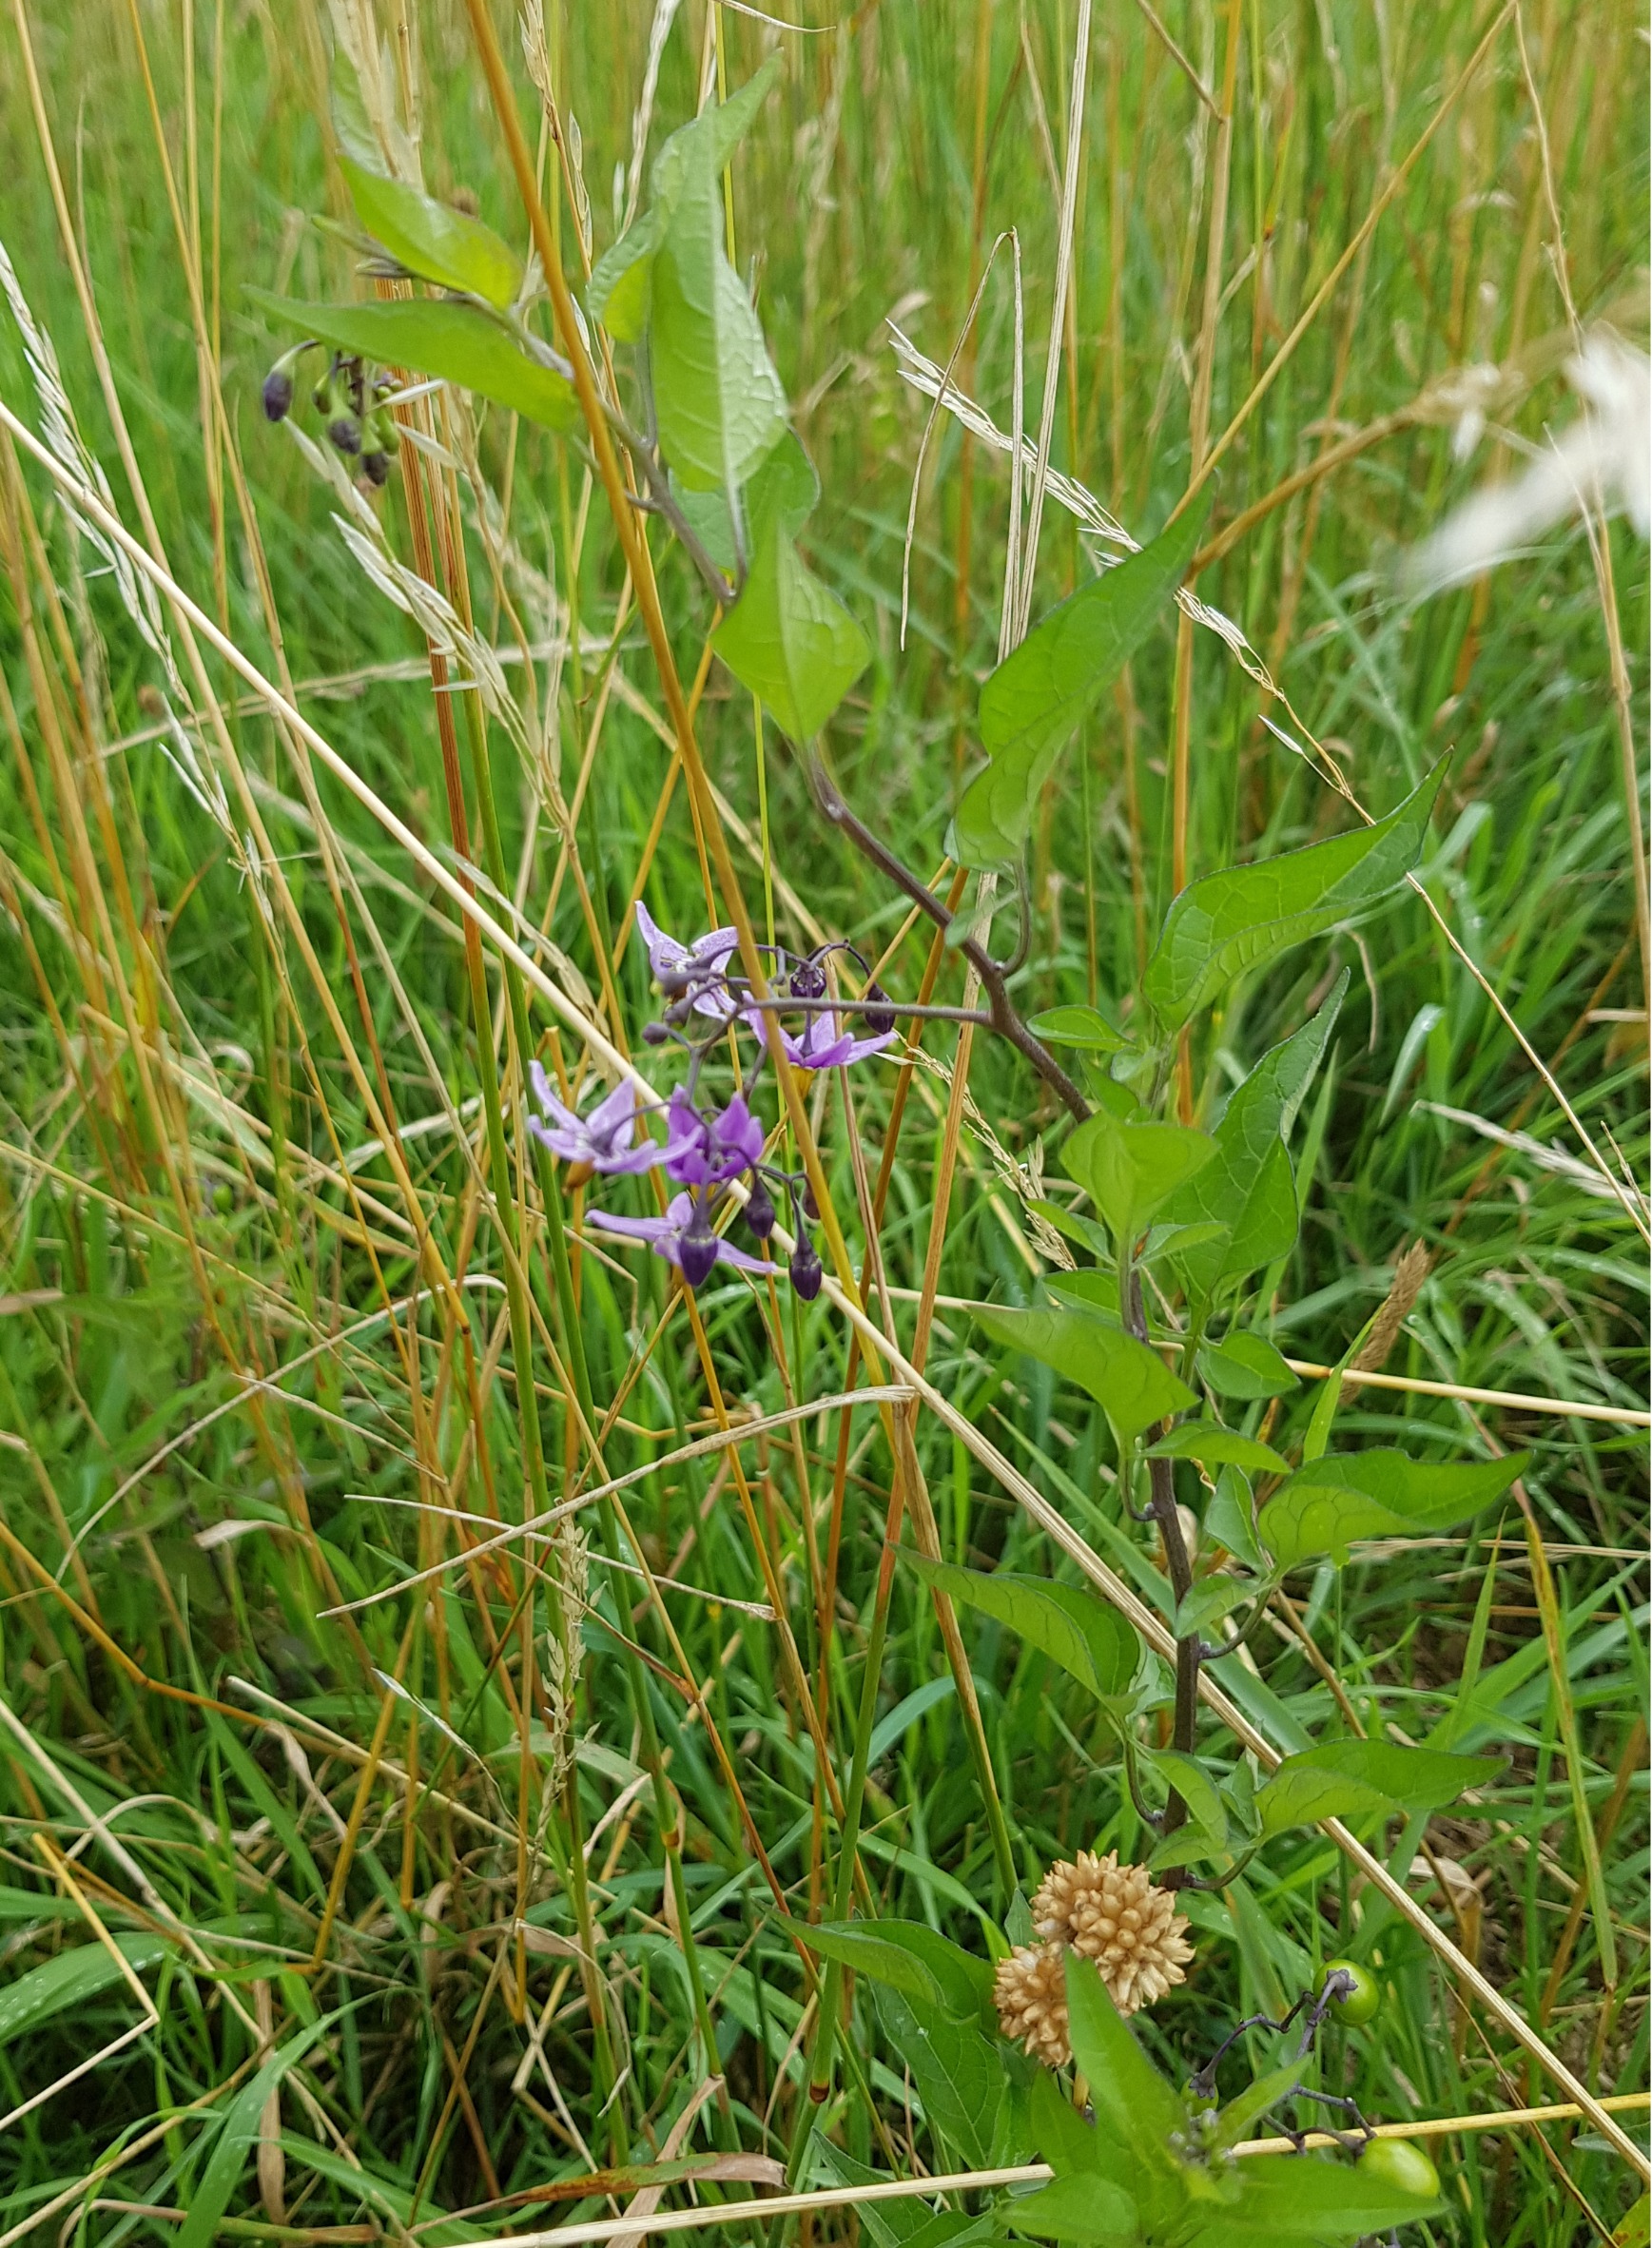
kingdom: Plantae
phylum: Tracheophyta
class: Magnoliopsida
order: Solanales
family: Solanaceae
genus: Solanum
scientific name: Solanum dulcamara
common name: Bittersød natskygge
